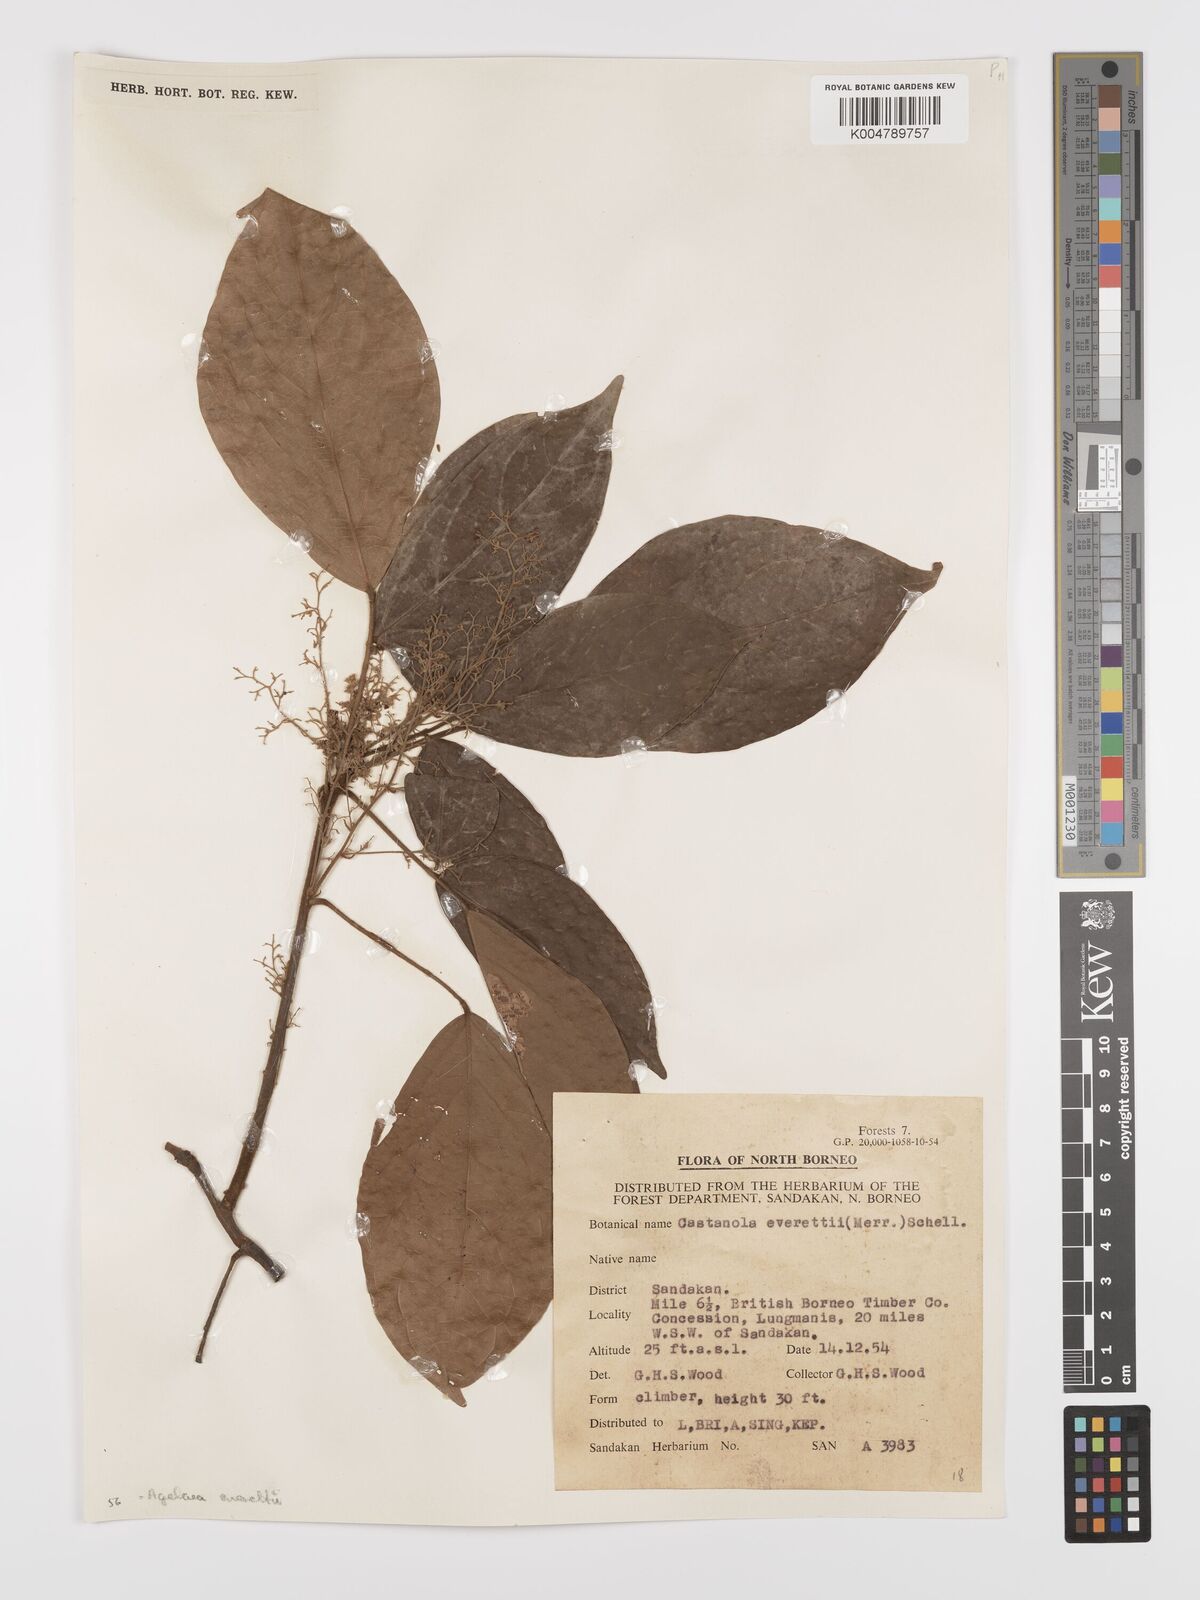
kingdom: Plantae
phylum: Tracheophyta
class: Magnoliopsida
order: Oxalidales
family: Connaraceae
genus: Agelaea
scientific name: Agelaea borneensis
